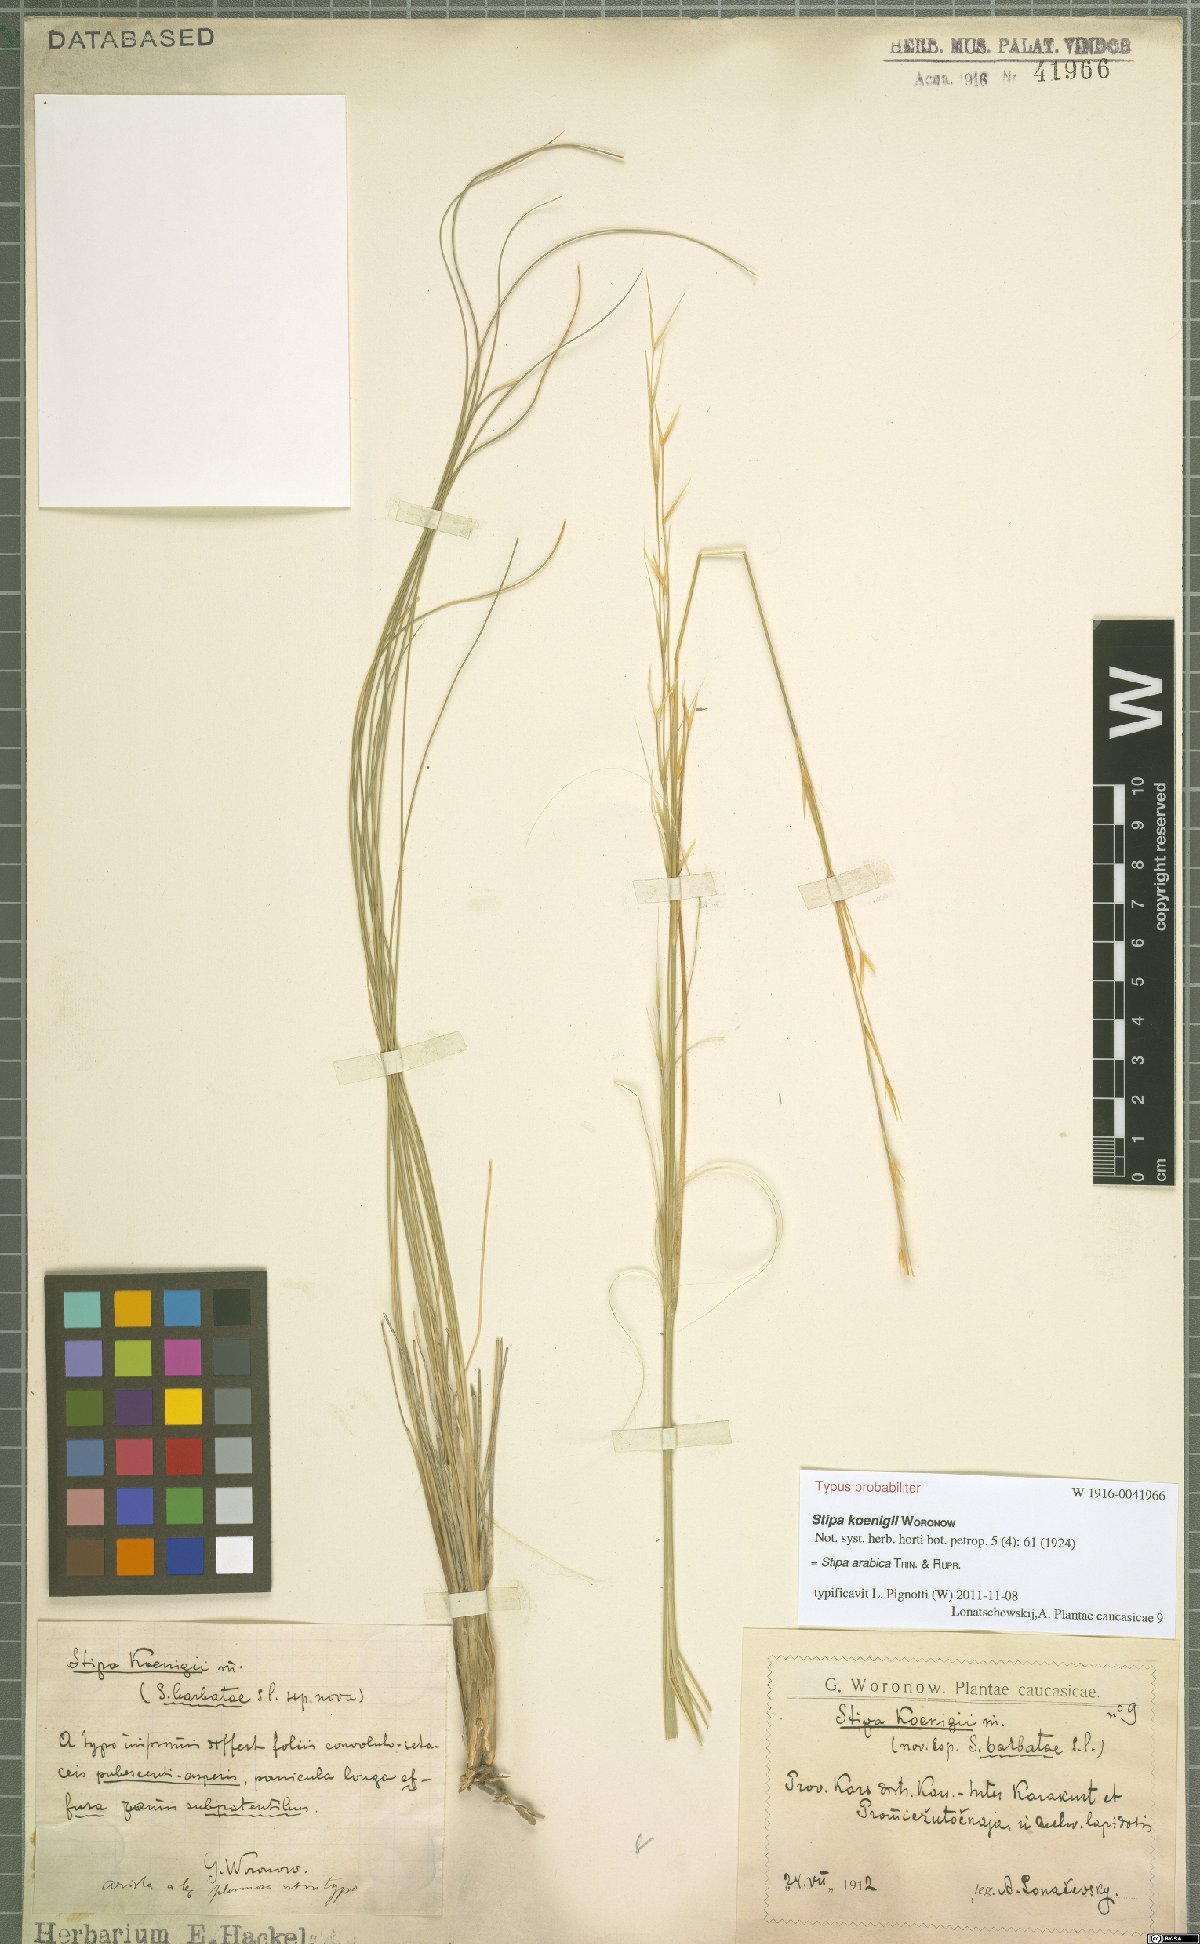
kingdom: Plantae
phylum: Tracheophyta
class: Liliopsida
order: Poales
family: Poaceae
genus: Stipa
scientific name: Stipa arabica
